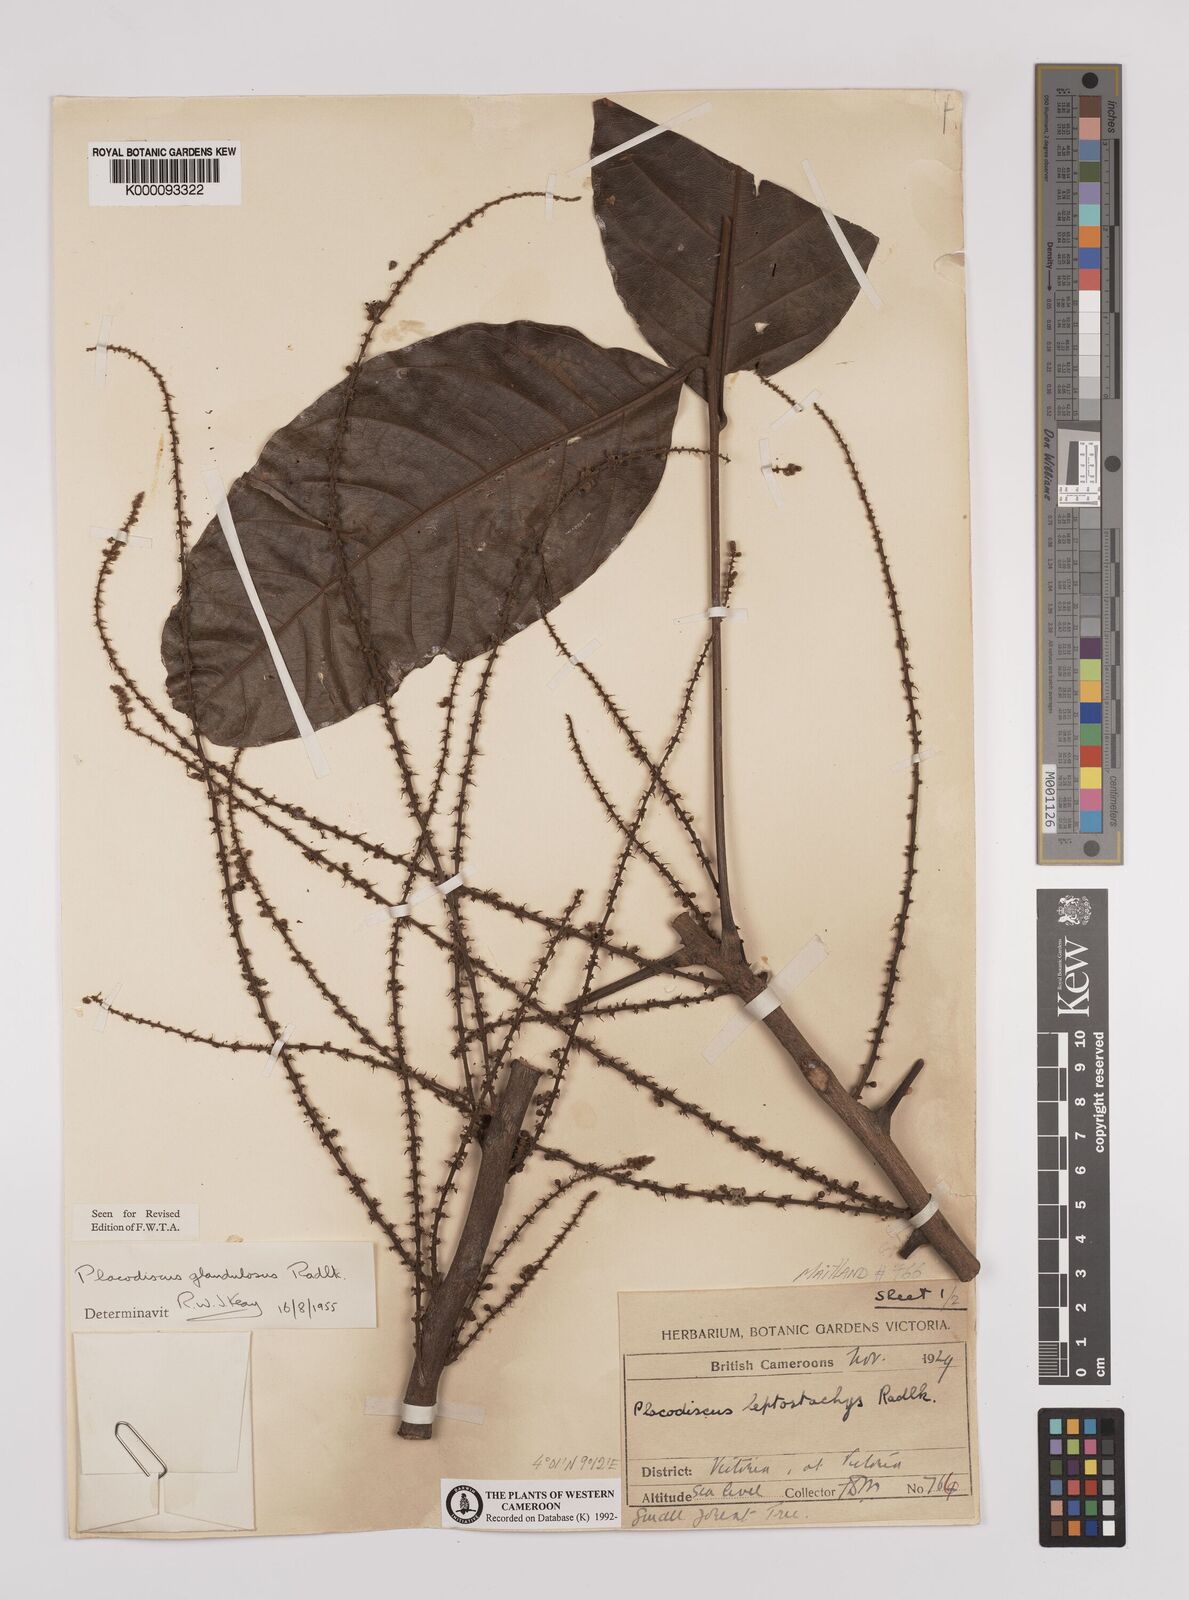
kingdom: Plantae
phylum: Tracheophyta
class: Magnoliopsida
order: Sapindales
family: Sapindaceae
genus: Placodiscus
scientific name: Placodiscus glandulosus
